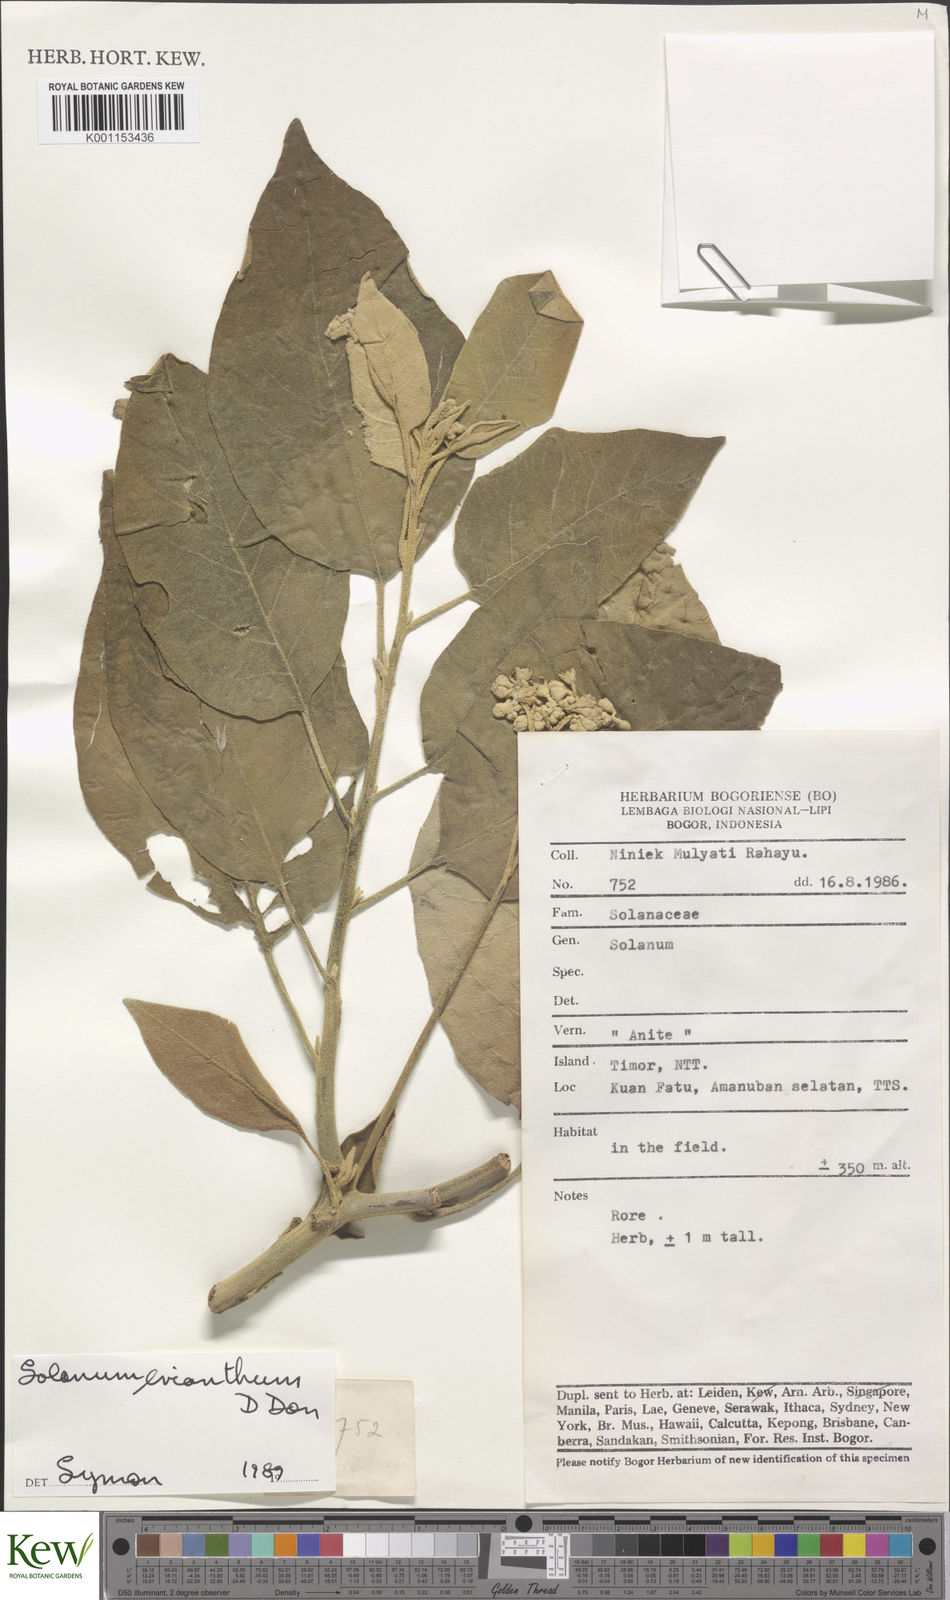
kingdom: Plantae
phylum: Tracheophyta
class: Magnoliopsida
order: Solanales
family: Solanaceae
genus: Solanum
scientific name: Solanum erianthum
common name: Tobacco-tree
